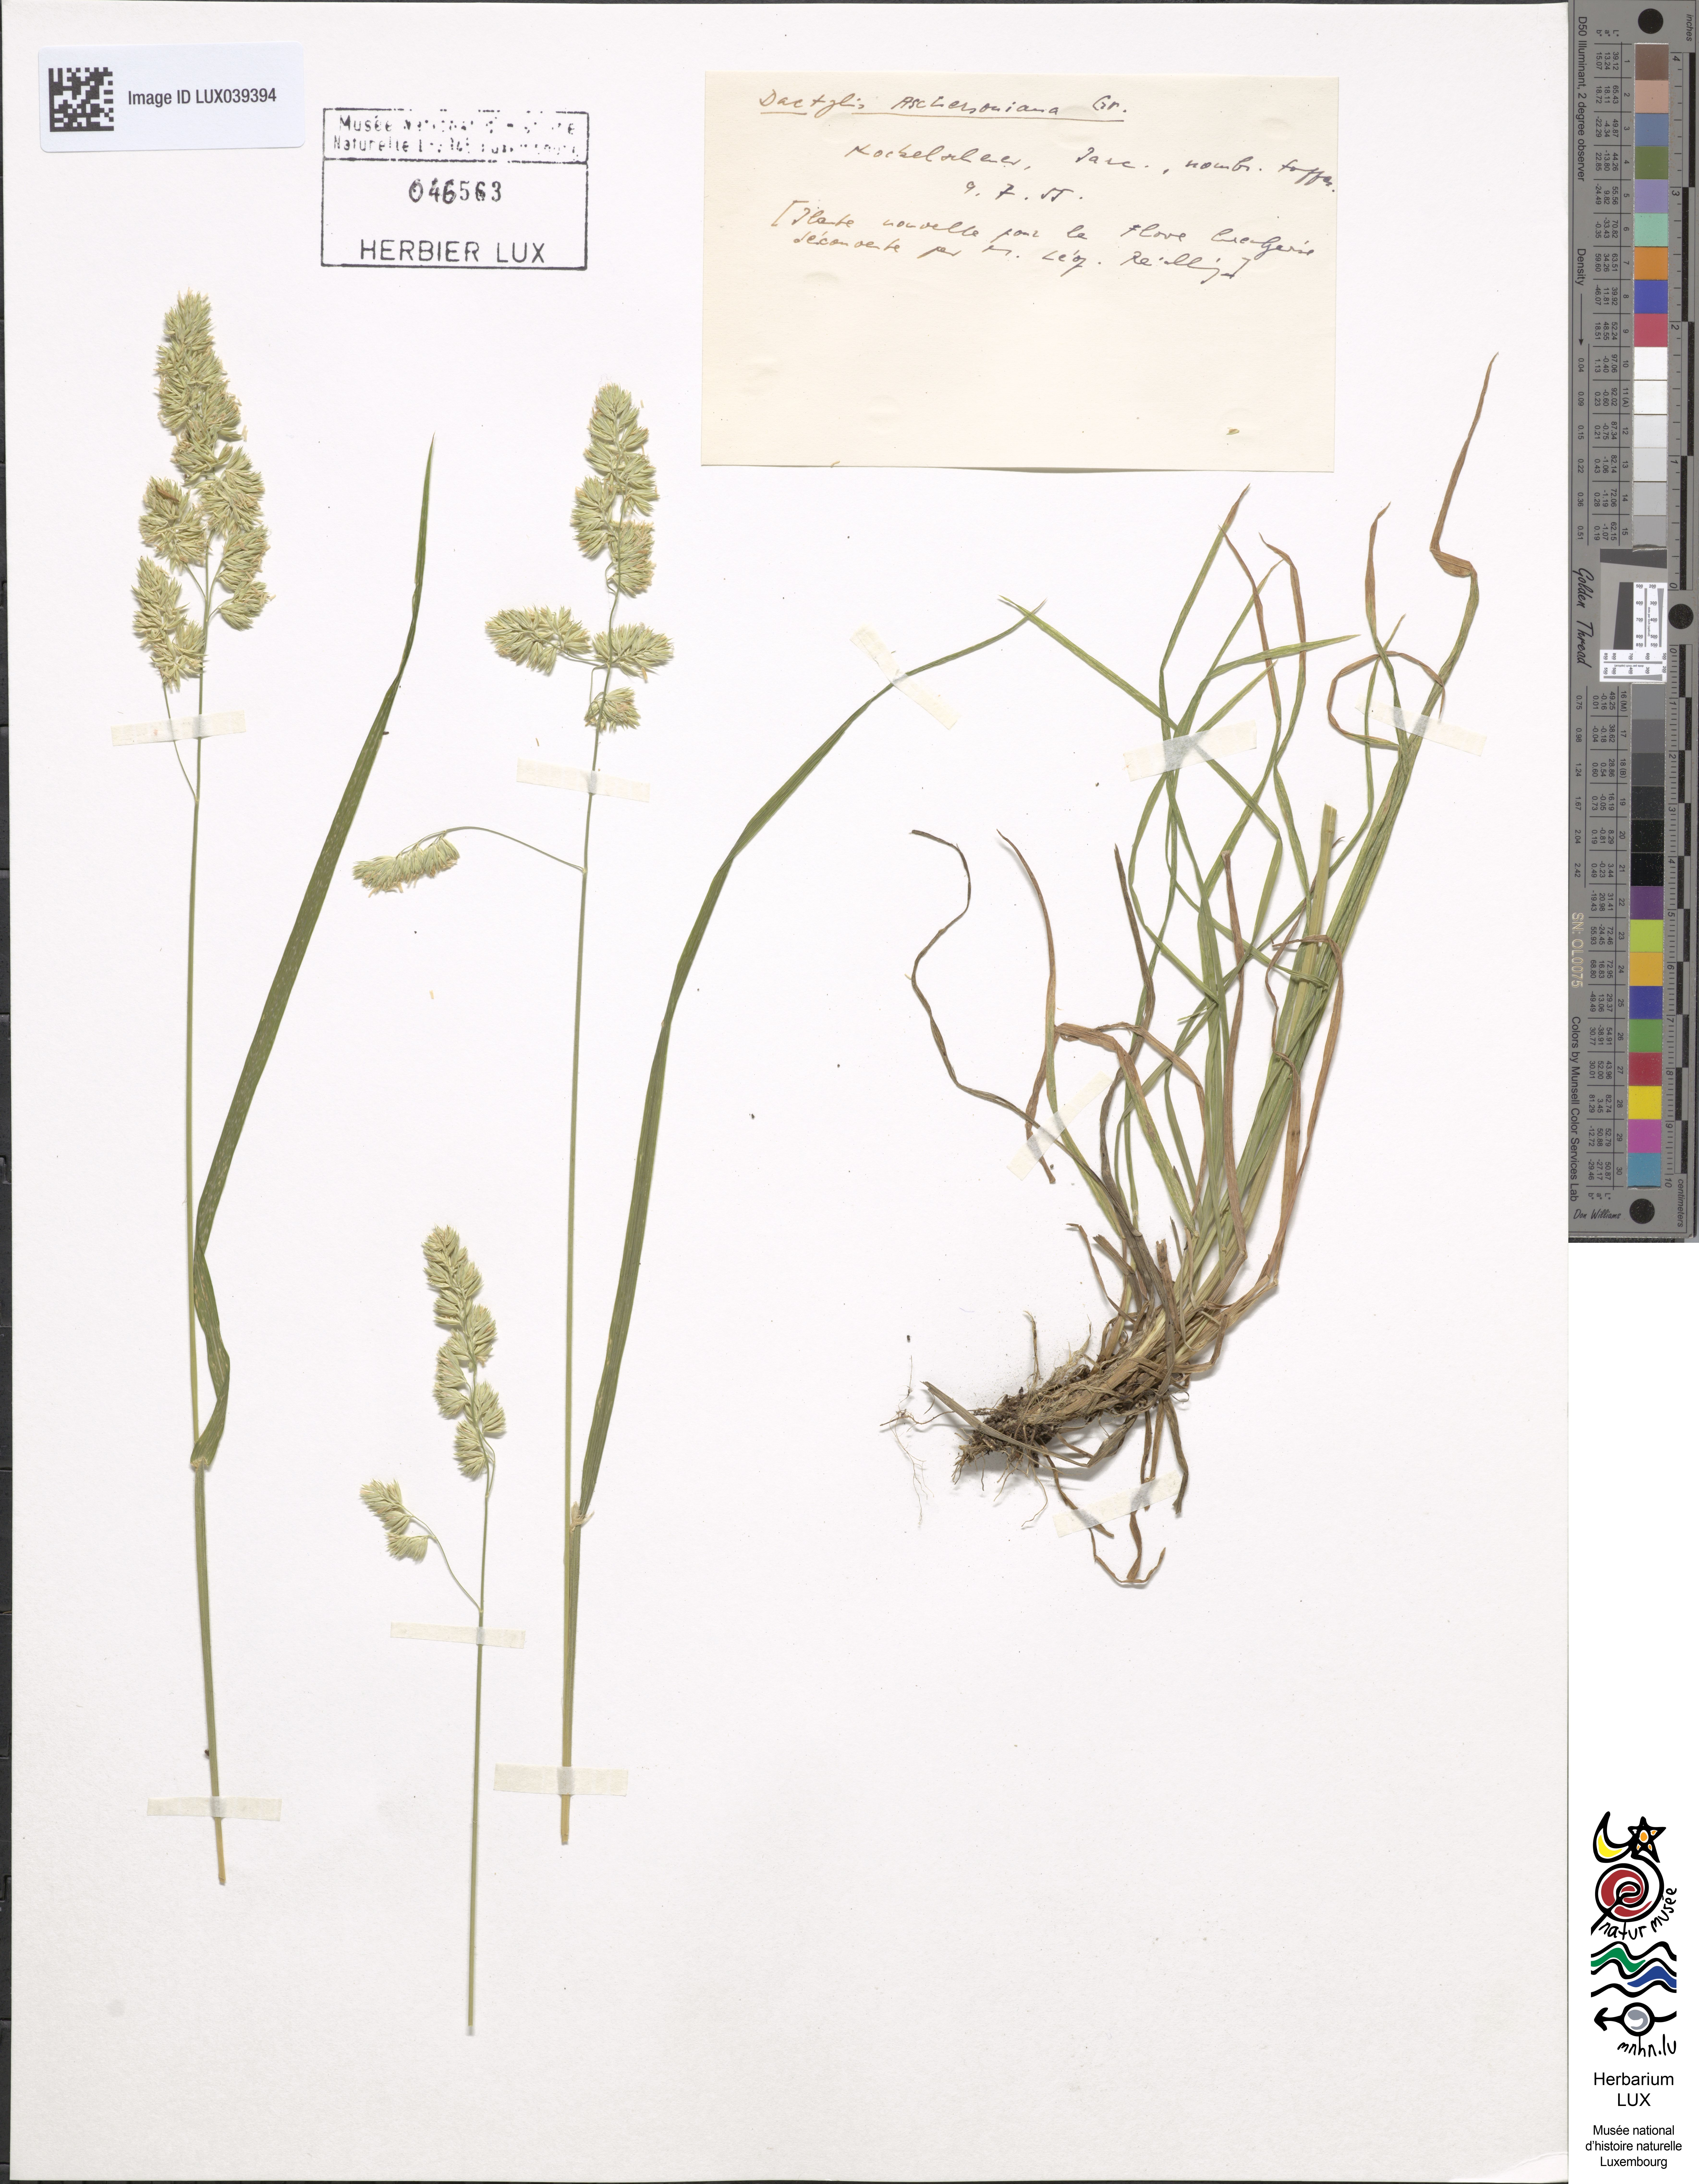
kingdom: Plantae
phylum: Tracheophyta
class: Liliopsida
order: Poales
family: Poaceae
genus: Dactylis
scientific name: Dactylis glomerata
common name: Orchardgrass
